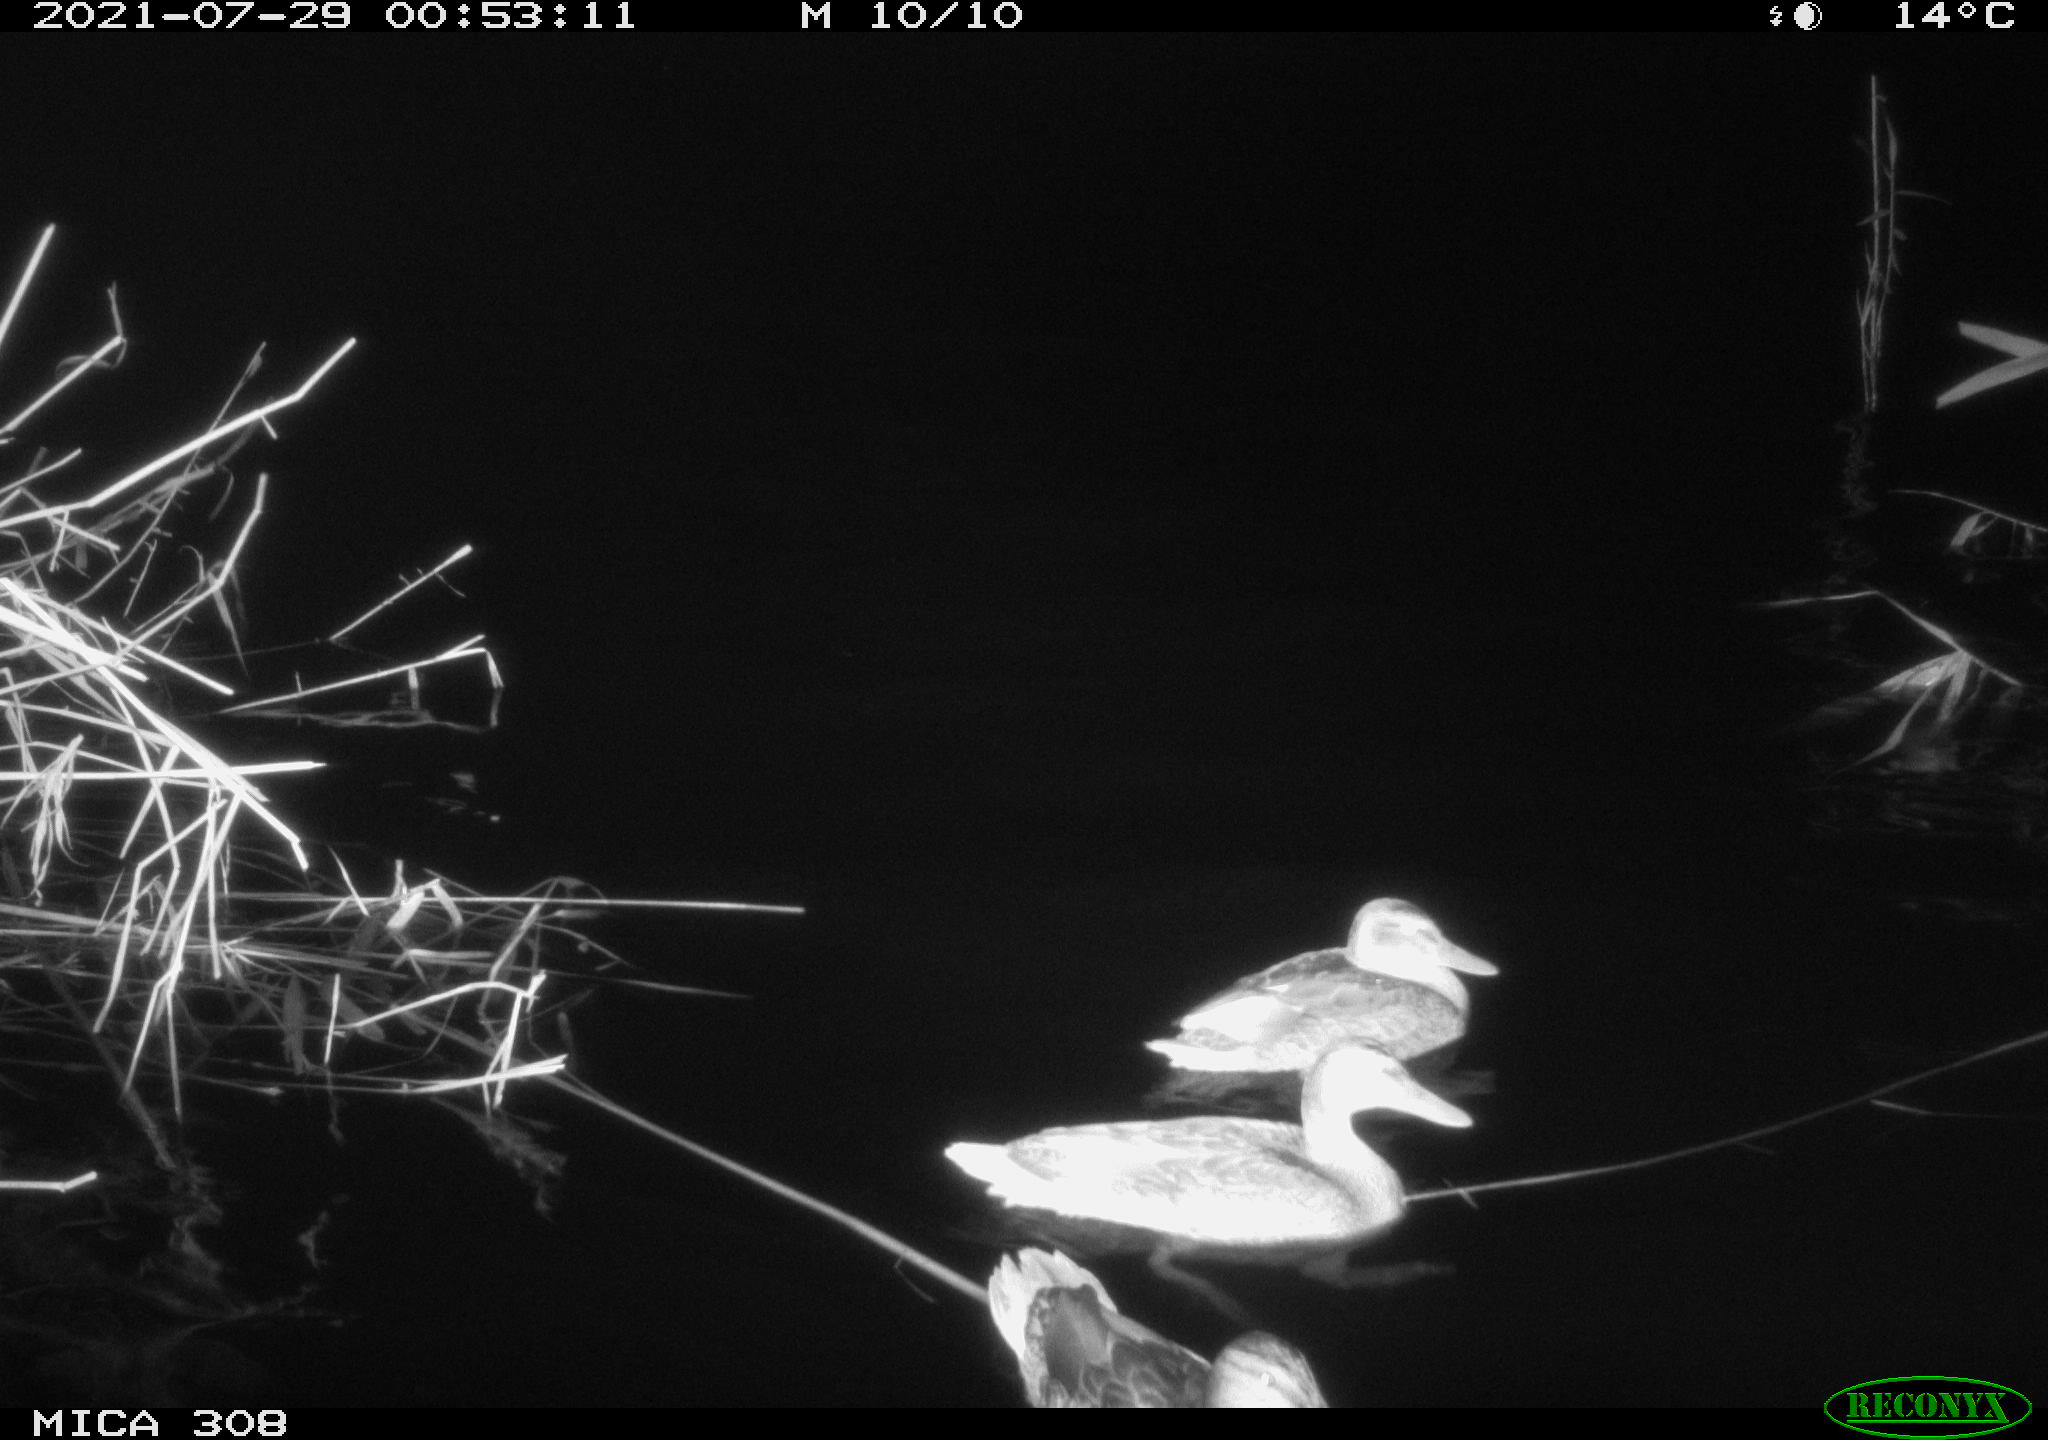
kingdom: Animalia
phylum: Chordata
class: Aves
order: Anseriformes
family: Anatidae
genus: Anas
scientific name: Anas platyrhynchos
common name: Mallard
